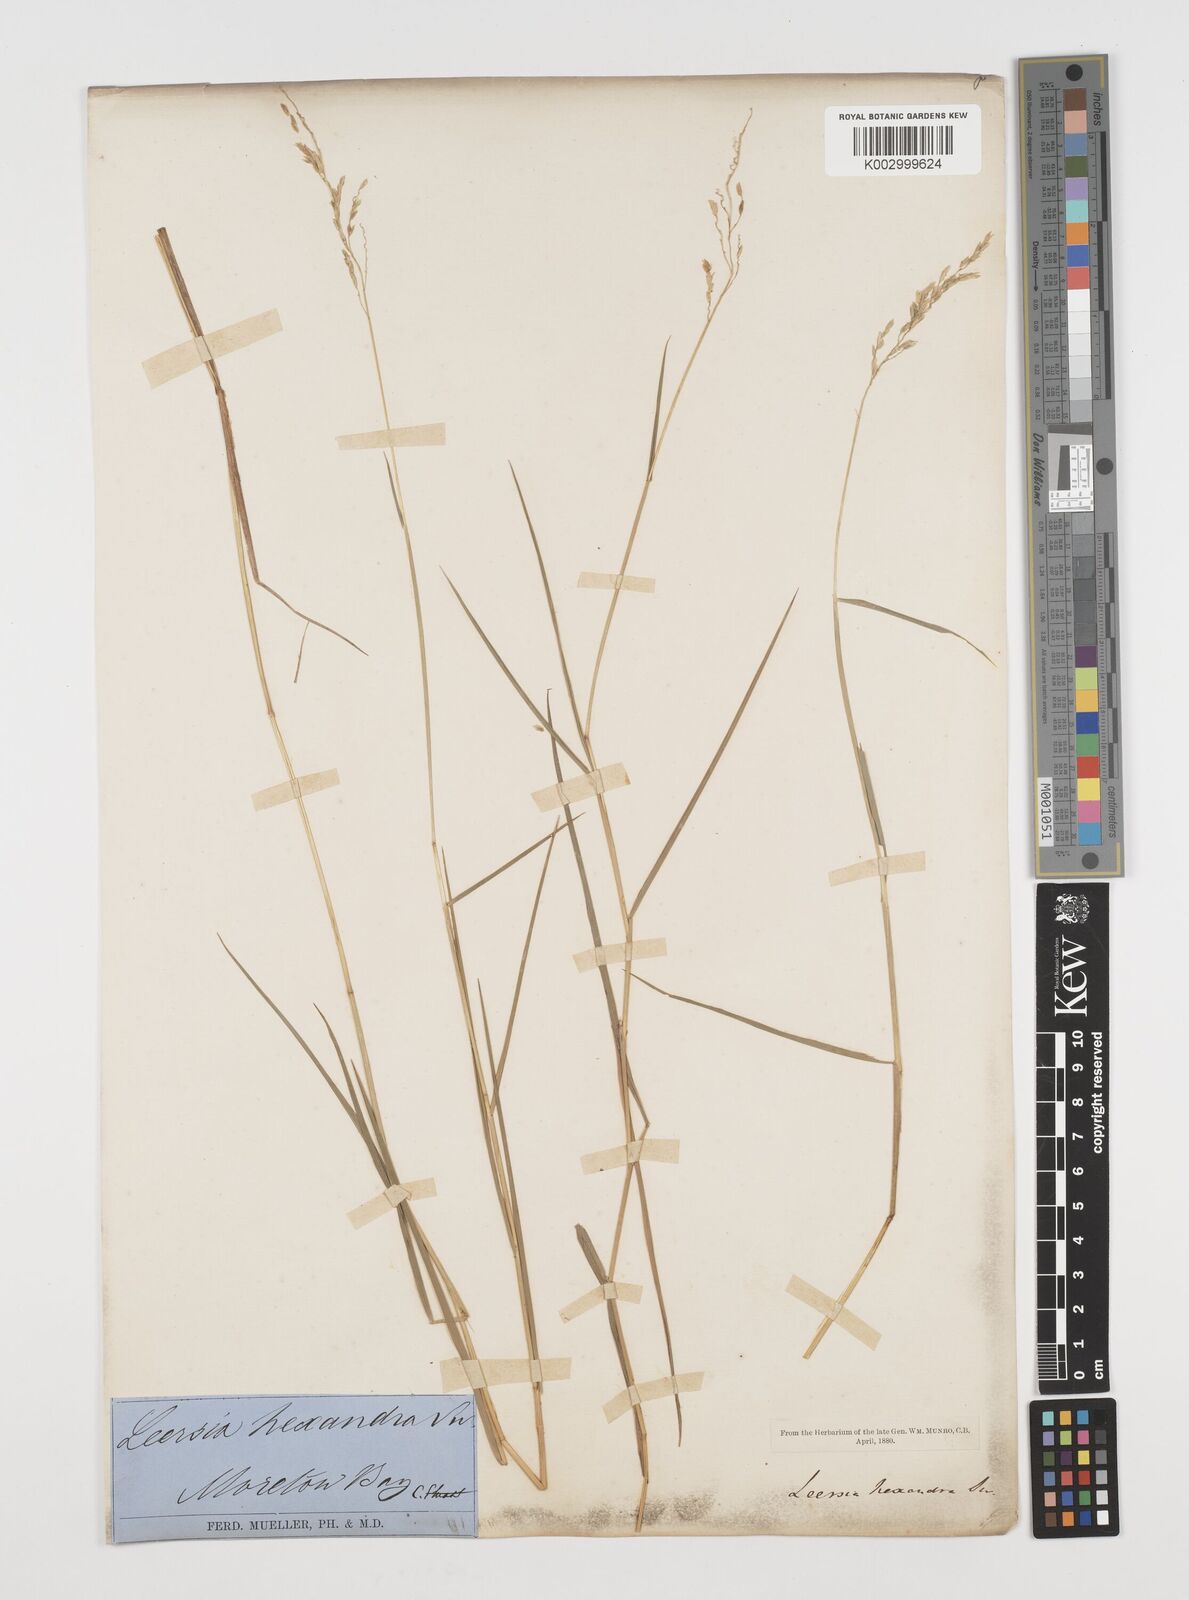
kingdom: Plantae
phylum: Tracheophyta
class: Liliopsida
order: Poales
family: Poaceae
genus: Leersia
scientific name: Leersia hexandra
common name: Southern cut grass
